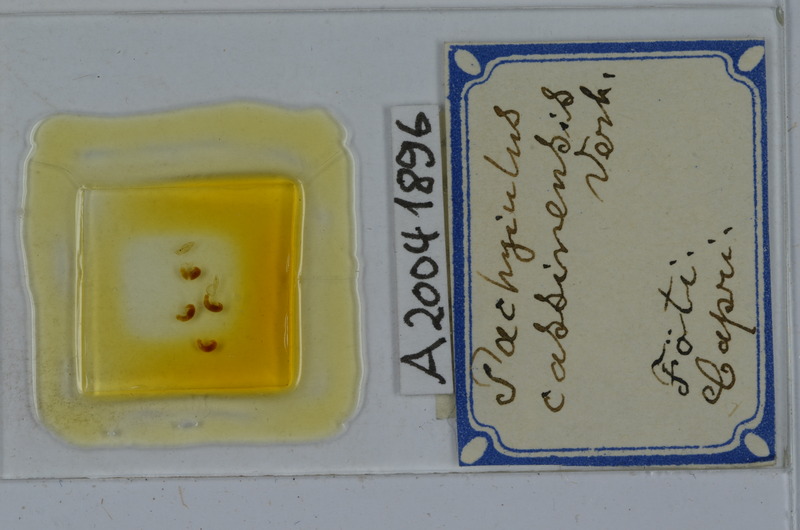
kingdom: Animalia
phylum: Arthropoda
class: Diplopoda
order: Julida
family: Julidae
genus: Pachyiulus
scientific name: Pachyiulus cassinensis
